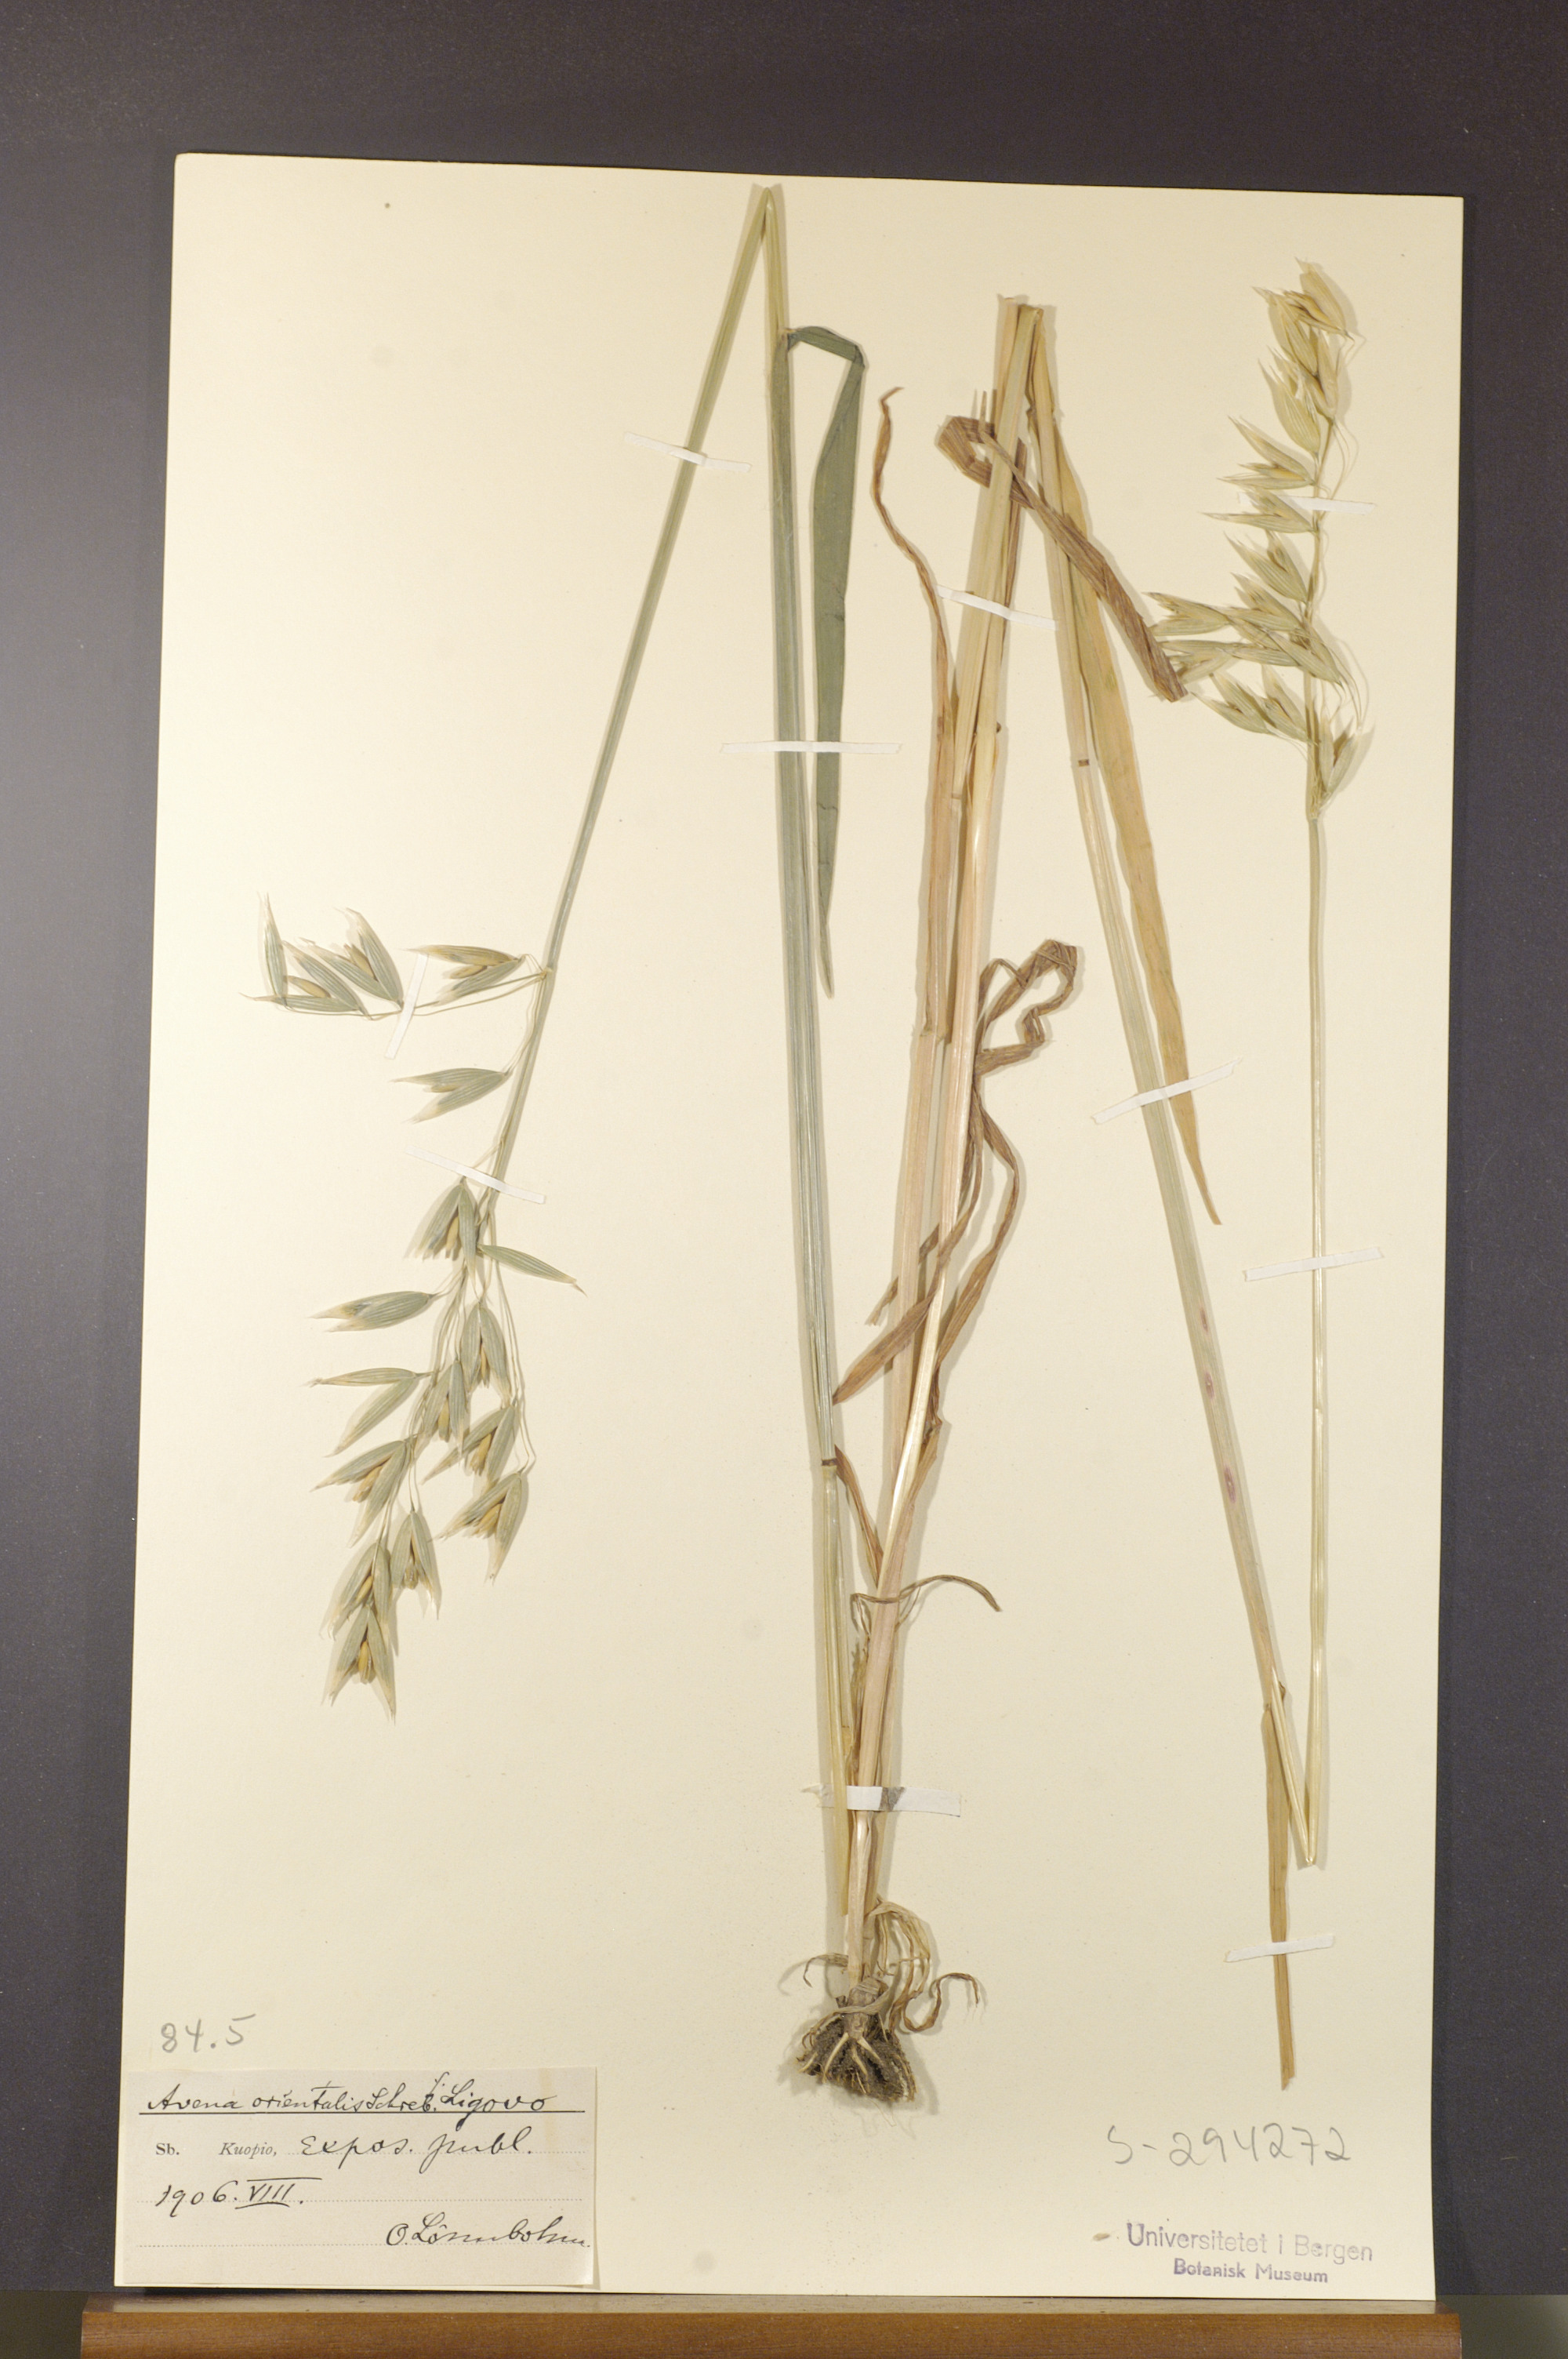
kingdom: Plantae
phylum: Tracheophyta
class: Liliopsida
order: Poales
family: Poaceae
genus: Avena
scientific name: Avena sativa
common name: Oat
